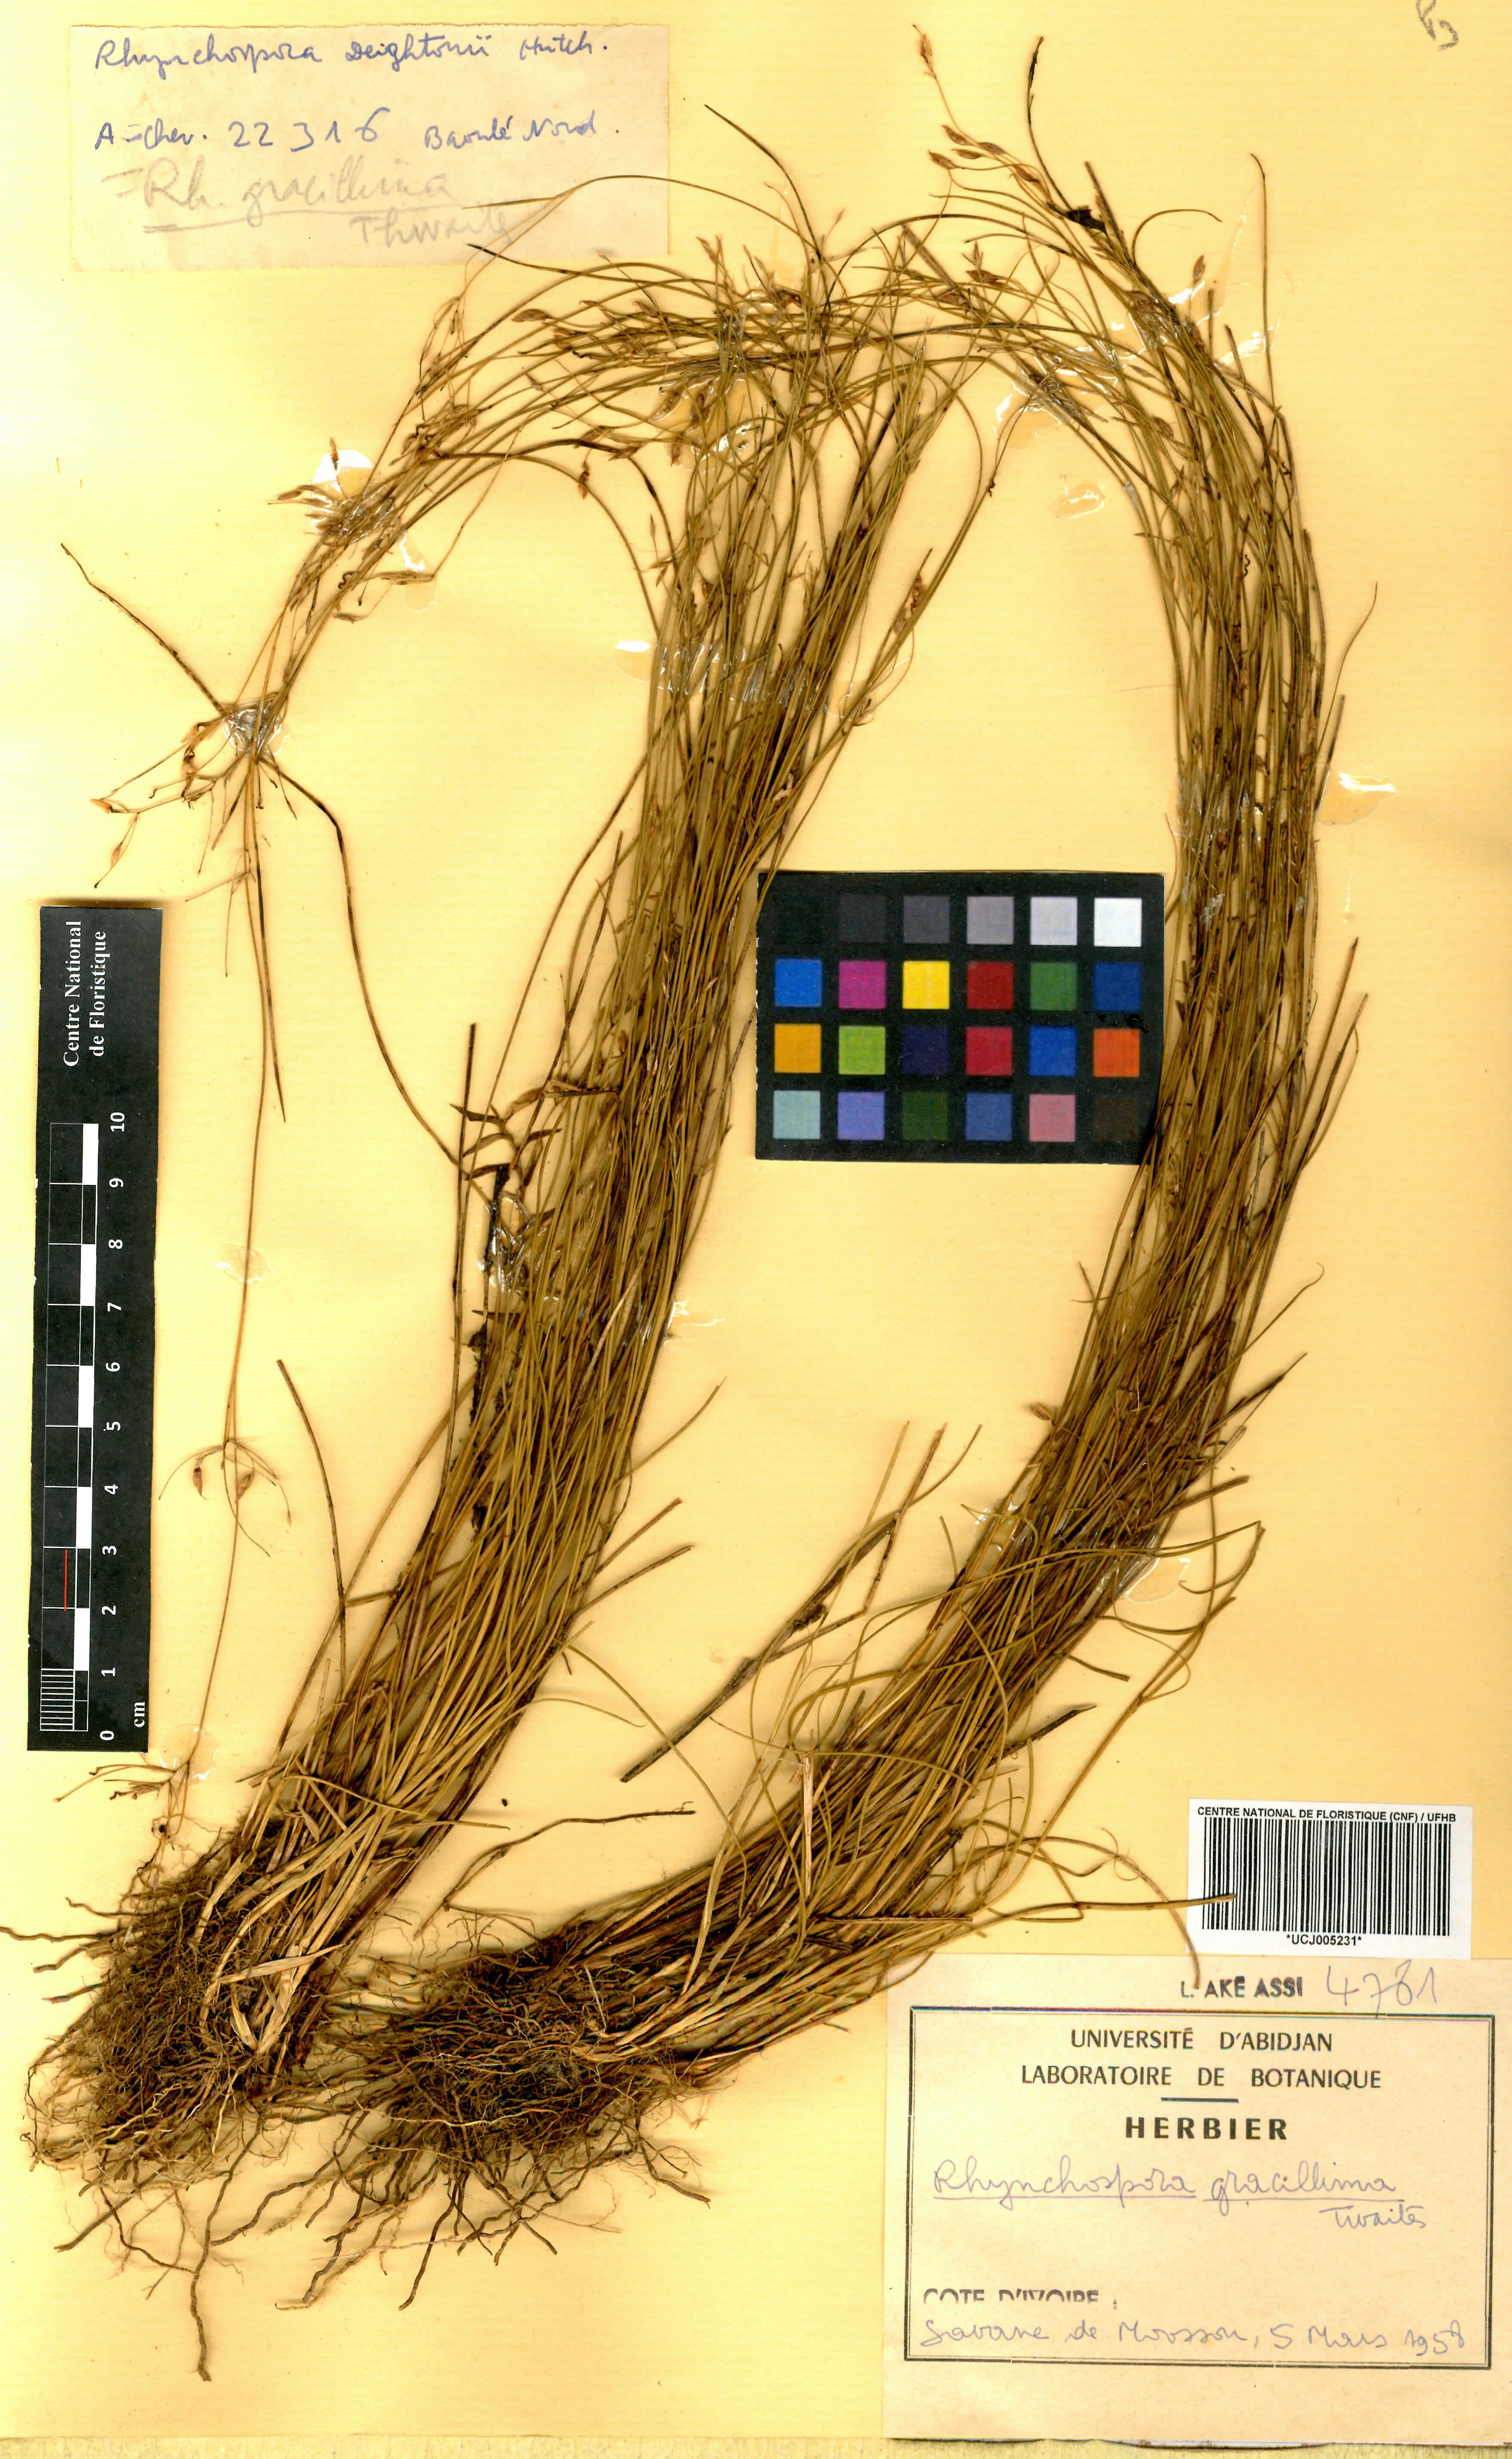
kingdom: Plantae
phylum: Tracheophyta
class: Liliopsida
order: Poales
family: Cyperaceae
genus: Rhynchospora
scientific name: Rhynchospora gracillima
